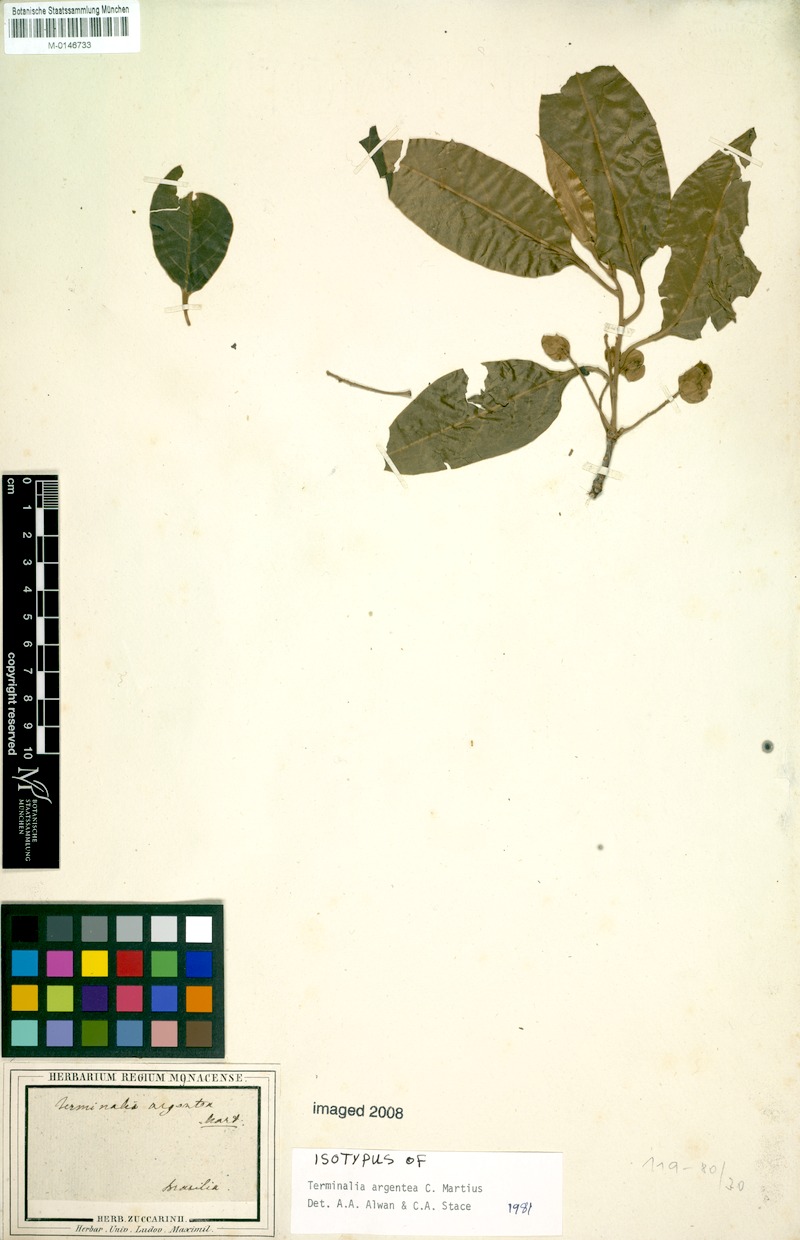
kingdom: Plantae
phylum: Tracheophyta
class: Magnoliopsida
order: Myrtales
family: Combretaceae
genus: Terminalia
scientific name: Terminalia argentea
